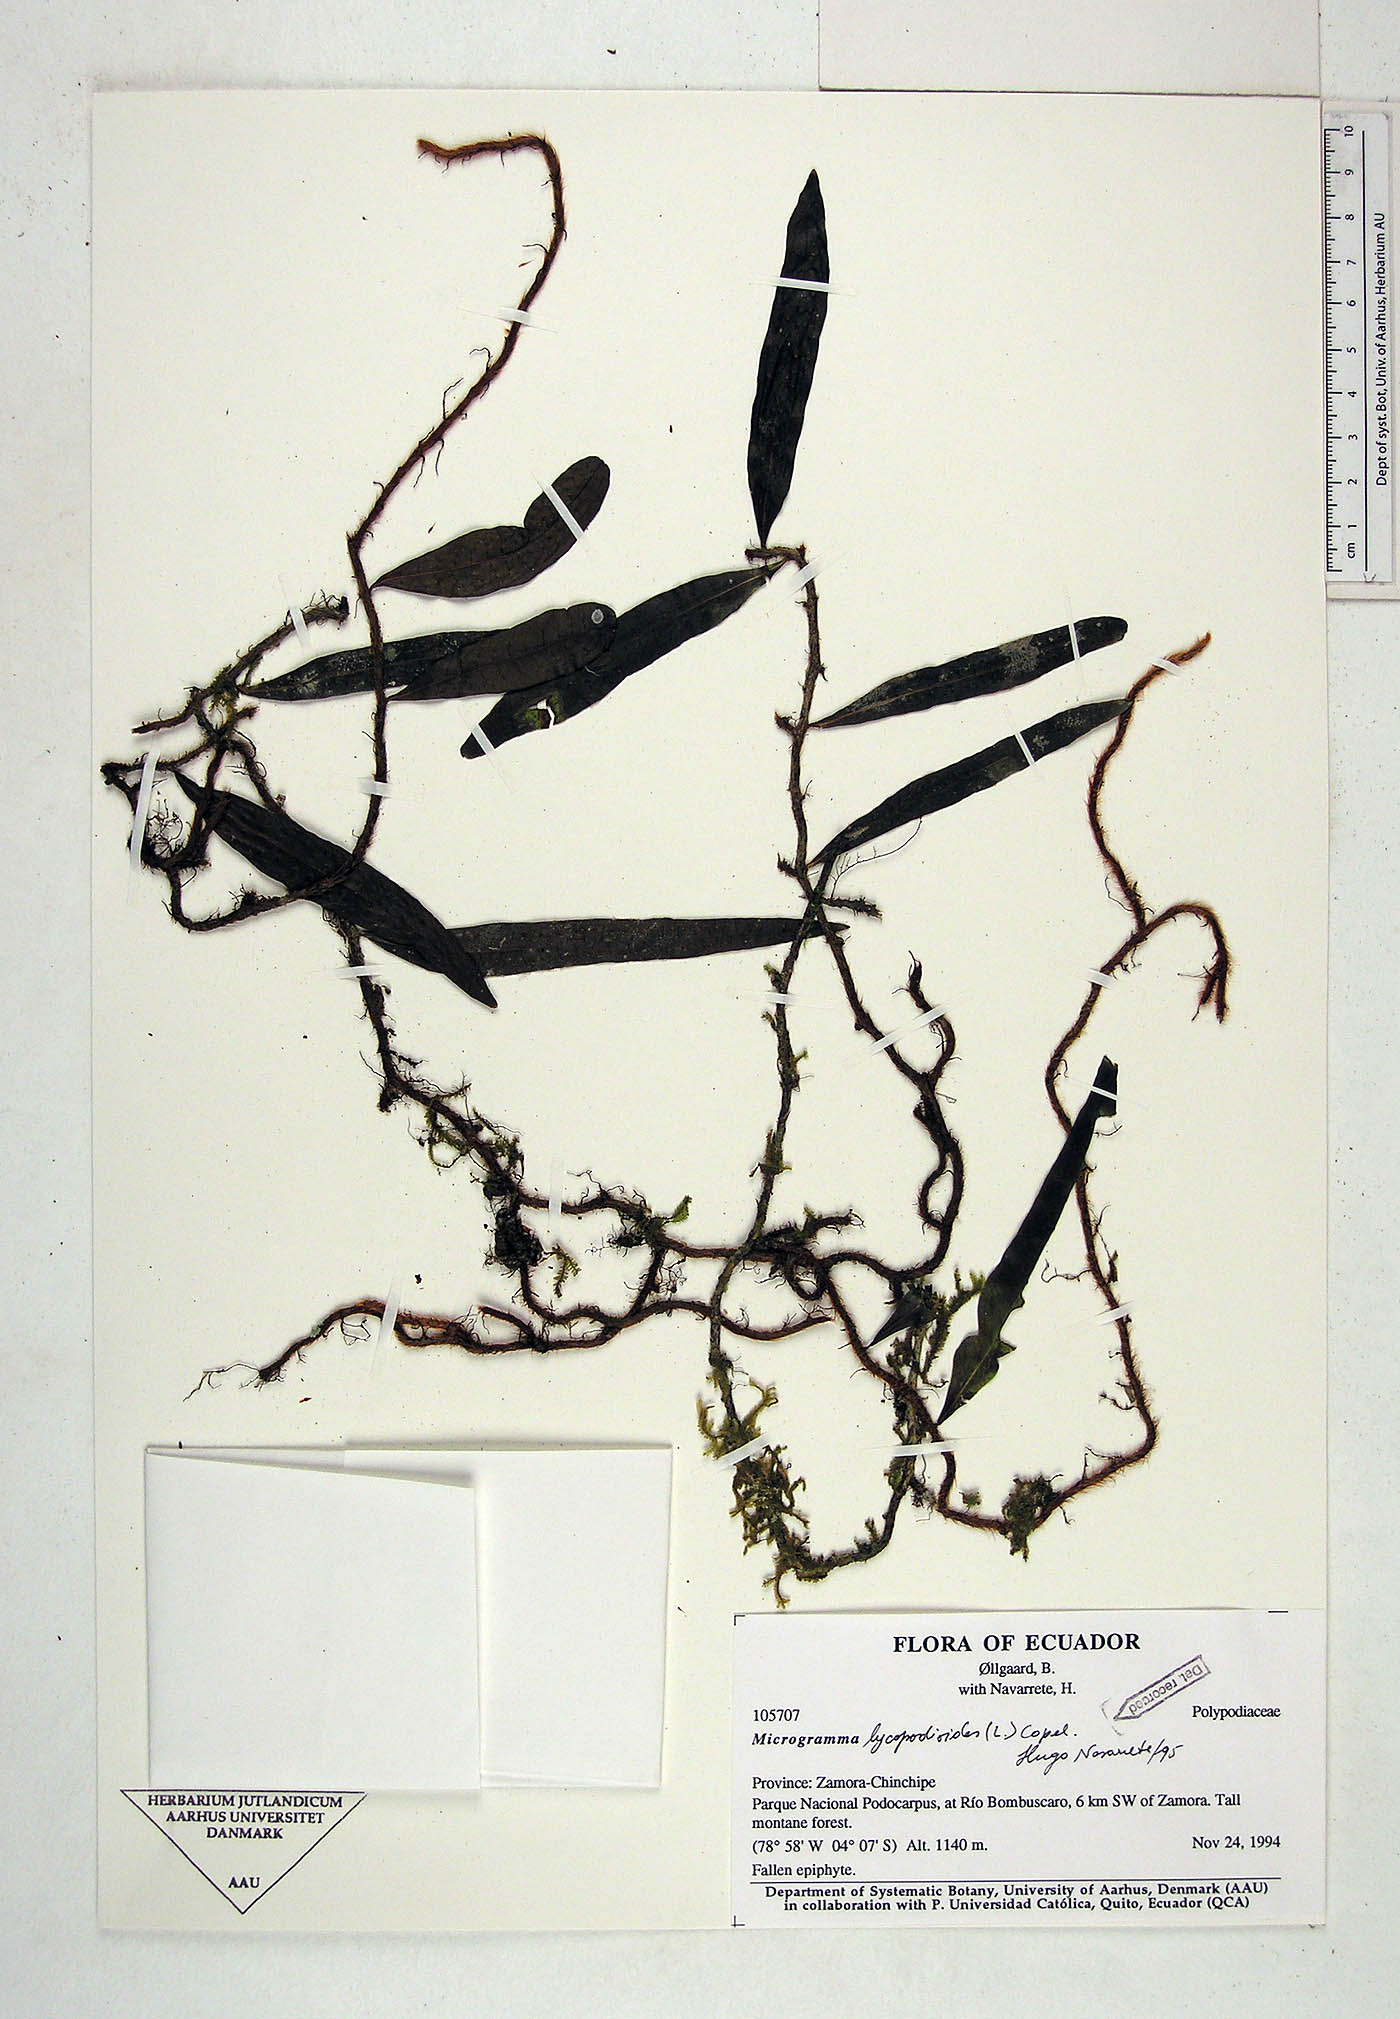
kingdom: Plantae
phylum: Tracheophyta
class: Polypodiopsida
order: Polypodiales
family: Polypodiaceae
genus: Microgramma
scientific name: Microgramma lycopodioides
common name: Bastard catclaw
